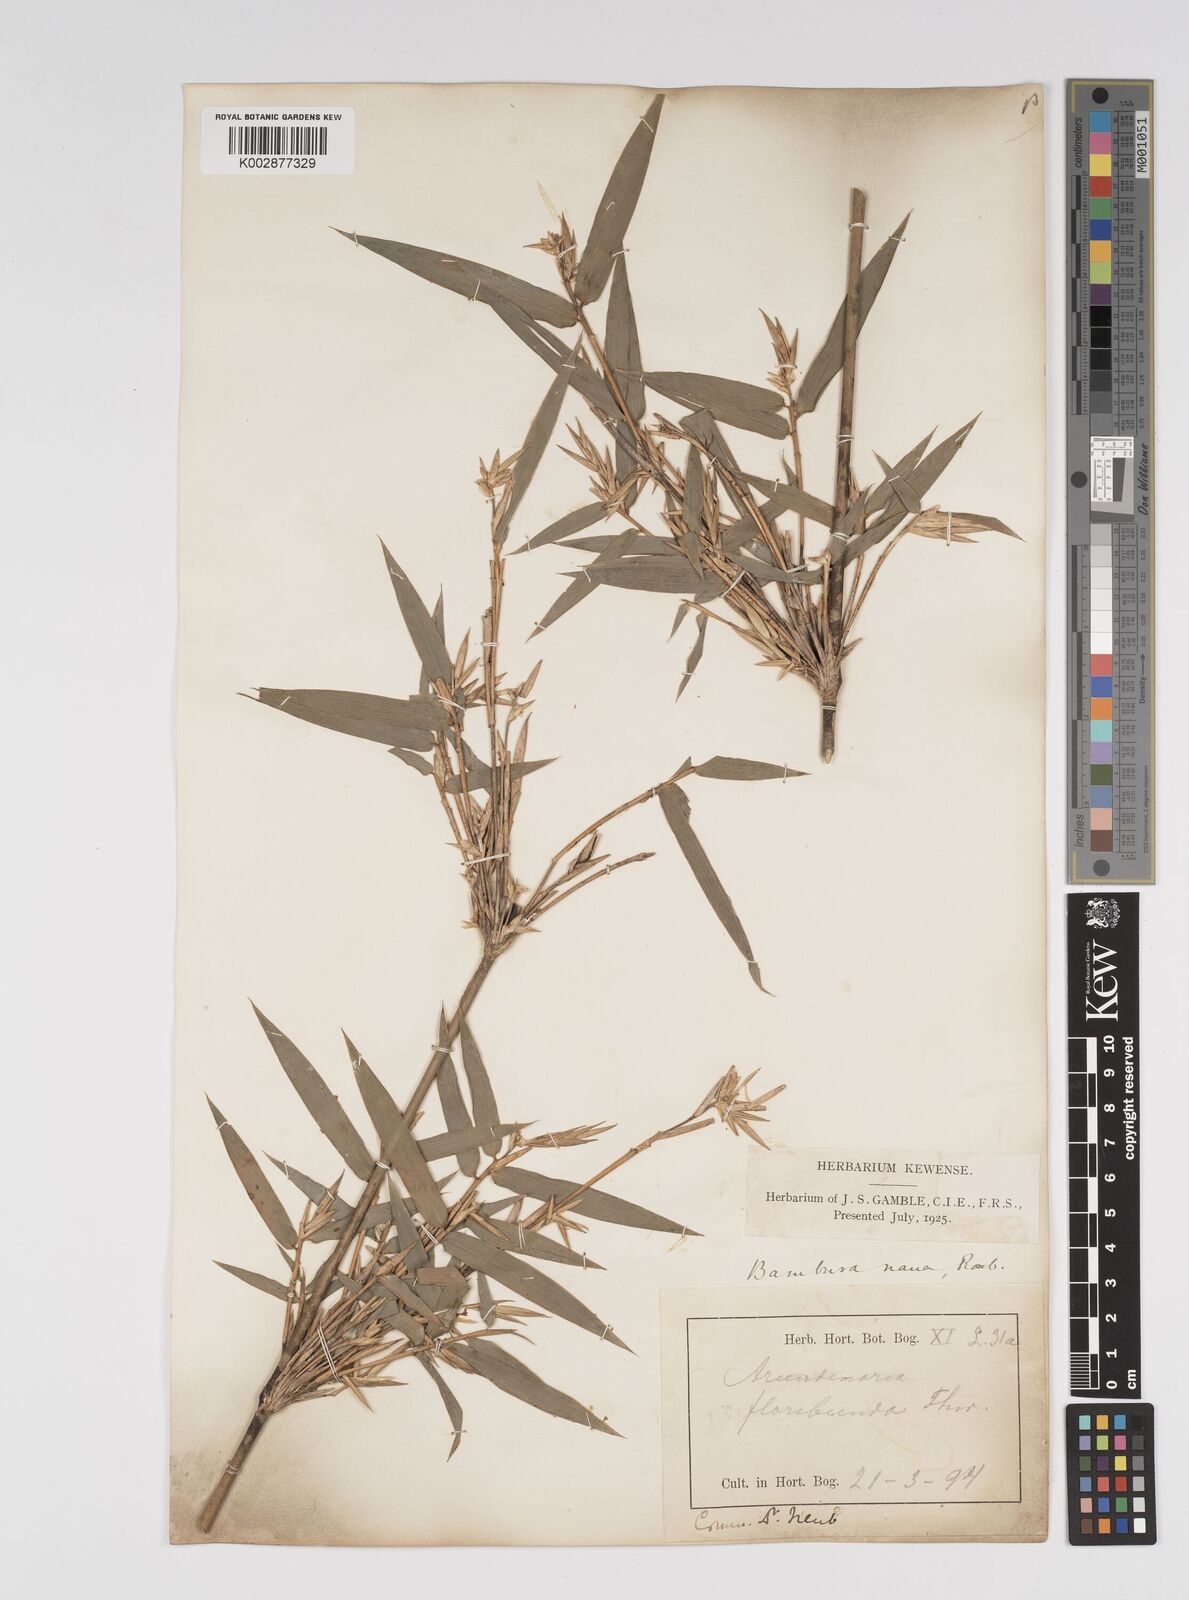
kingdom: Plantae
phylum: Tracheophyta
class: Liliopsida
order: Poales
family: Poaceae
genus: Bambusa
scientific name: Bambusa multiplex
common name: Hedge bamboo
